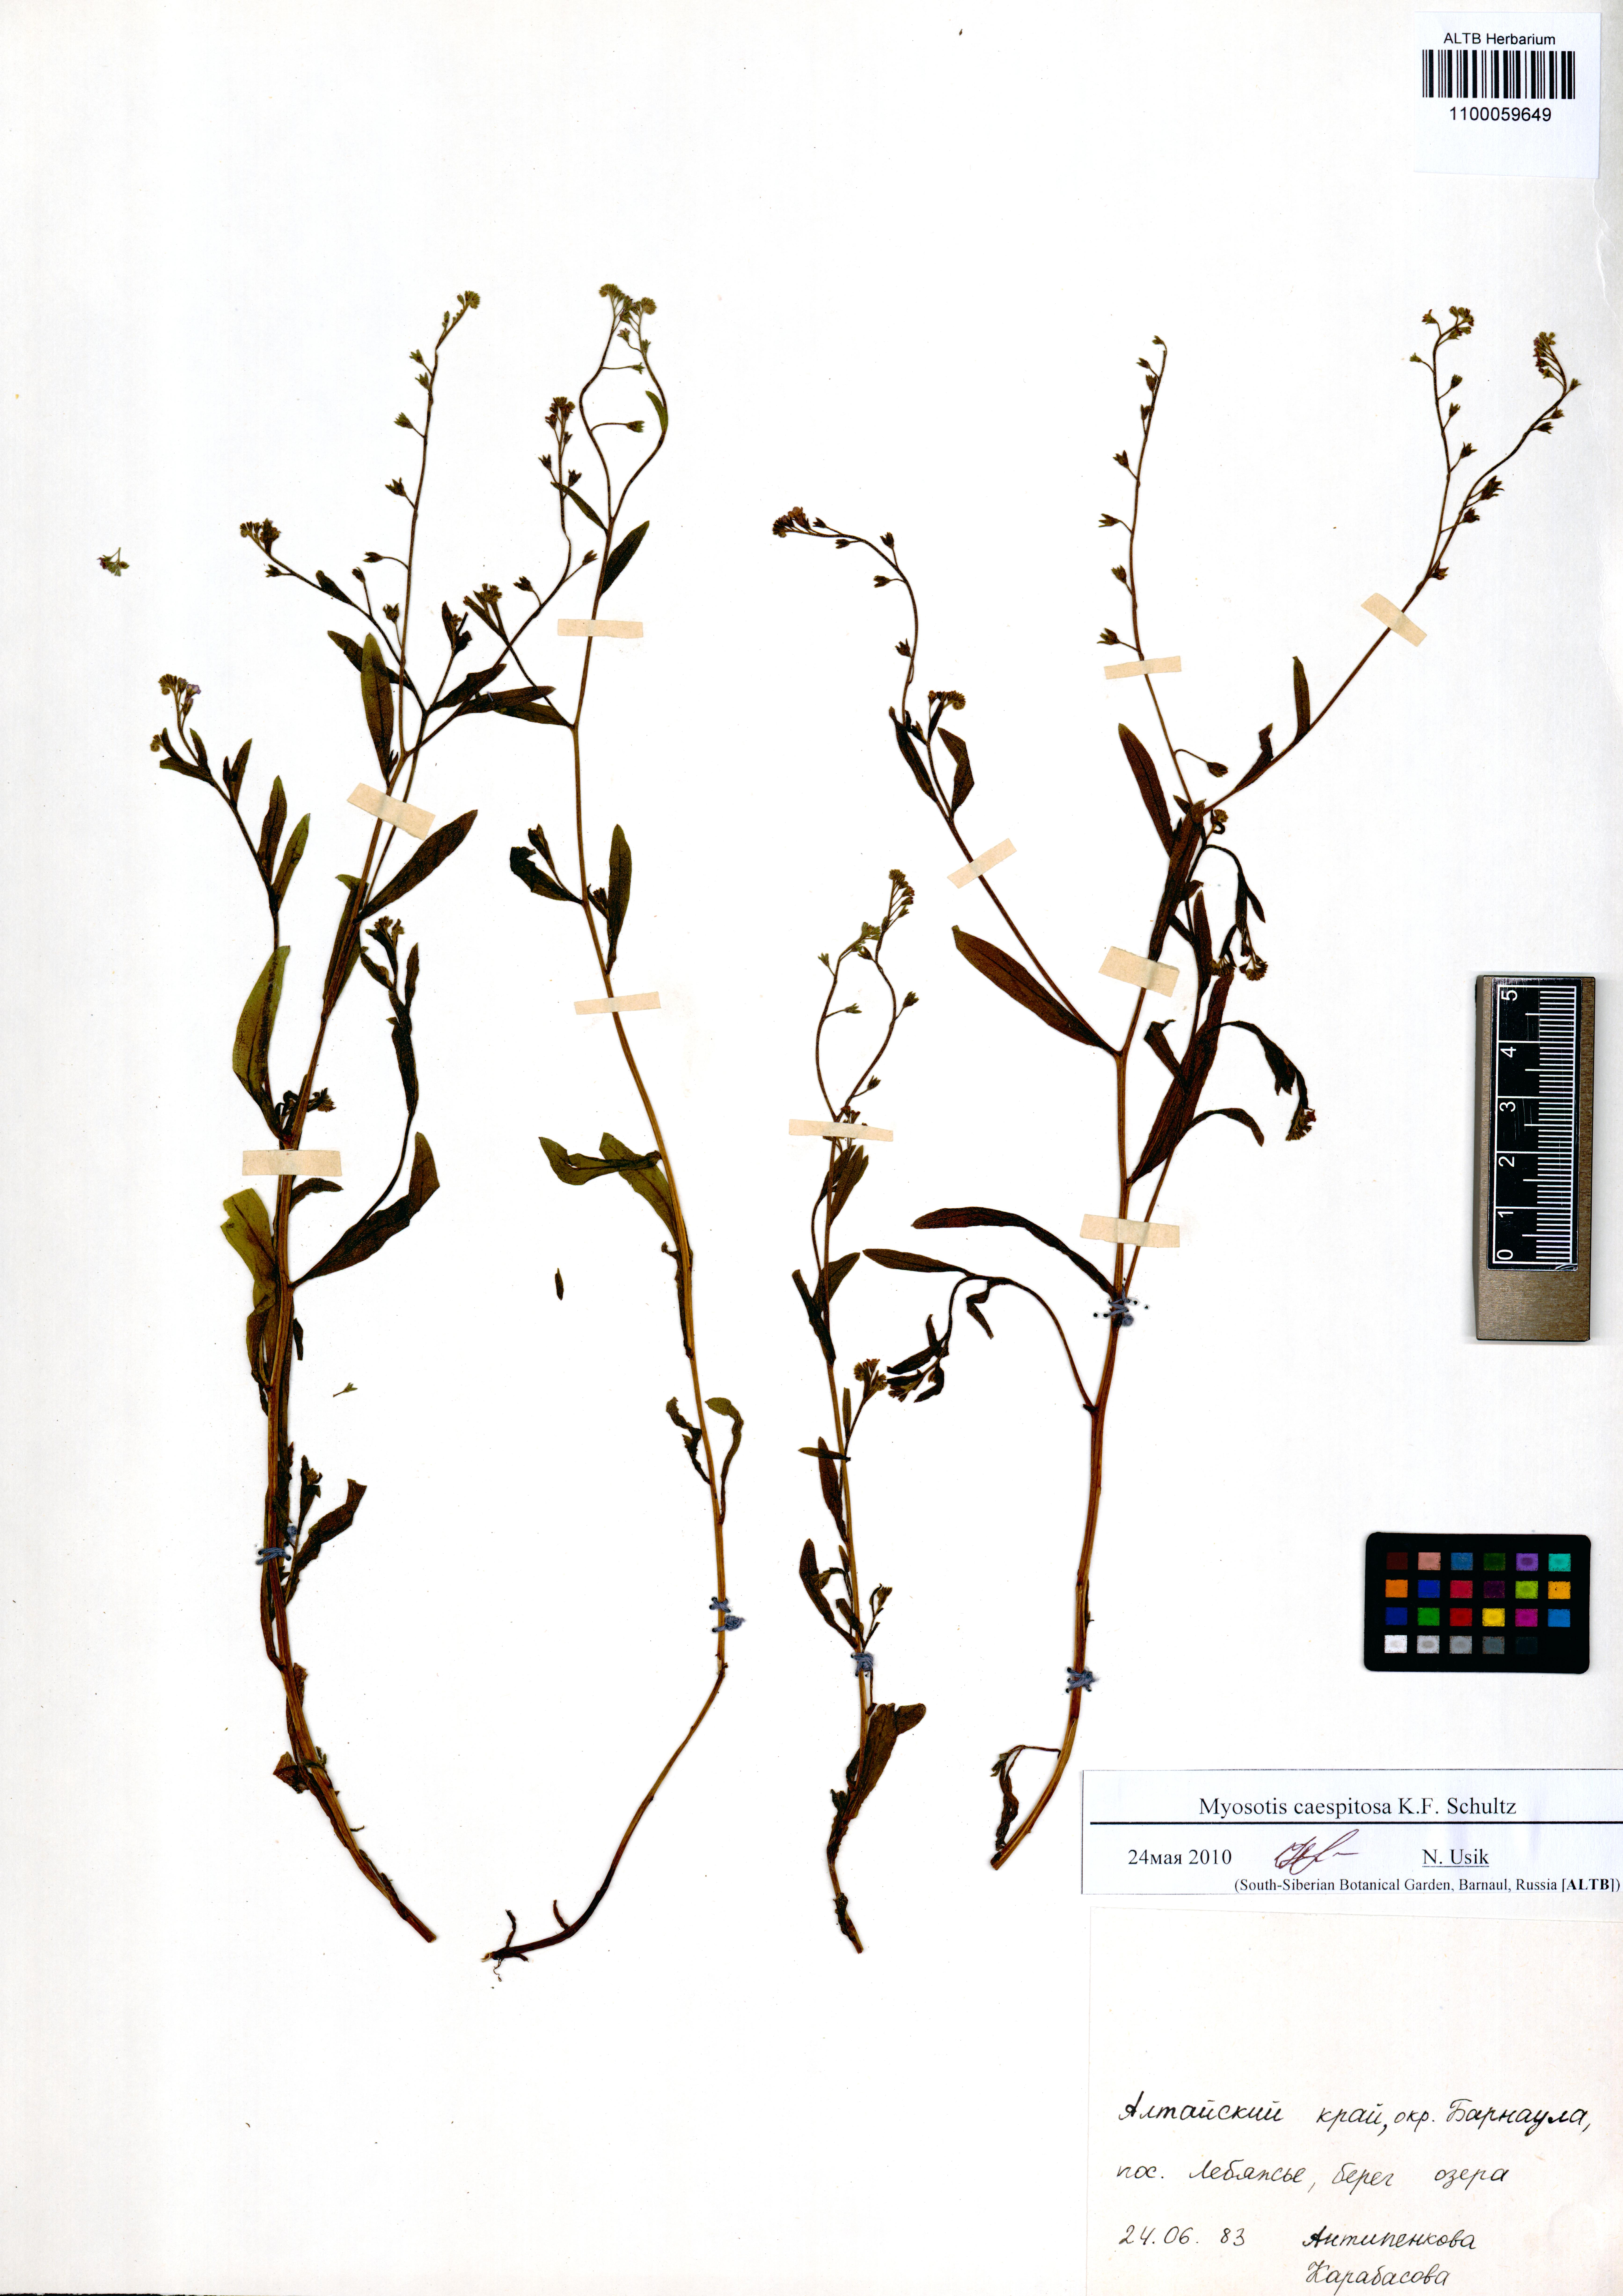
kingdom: Plantae
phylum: Tracheophyta
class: Magnoliopsida
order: Boraginales
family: Boraginaceae
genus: Myosotis
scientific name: Myosotis laxa
